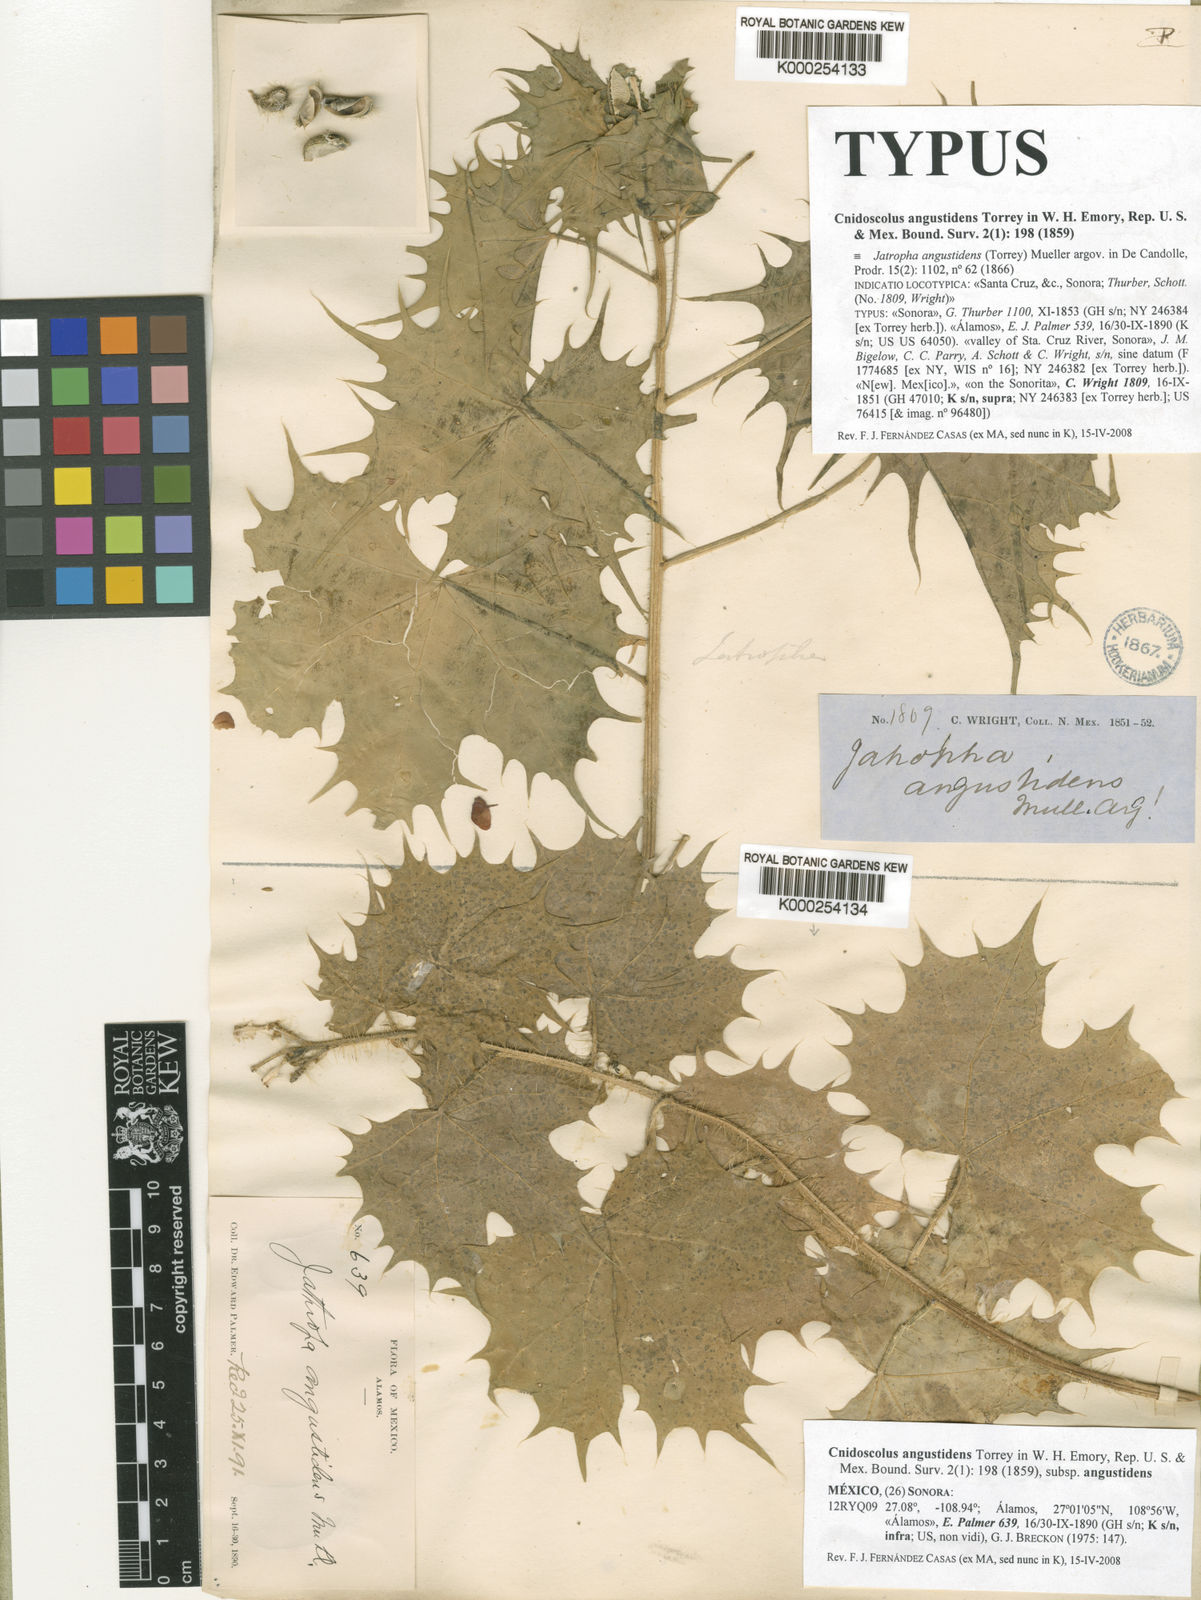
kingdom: Plantae
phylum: Tracheophyta
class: Magnoliopsida
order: Malpighiales
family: Euphorbiaceae
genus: Cnidoscolus
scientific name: Cnidoscolus angustidens
